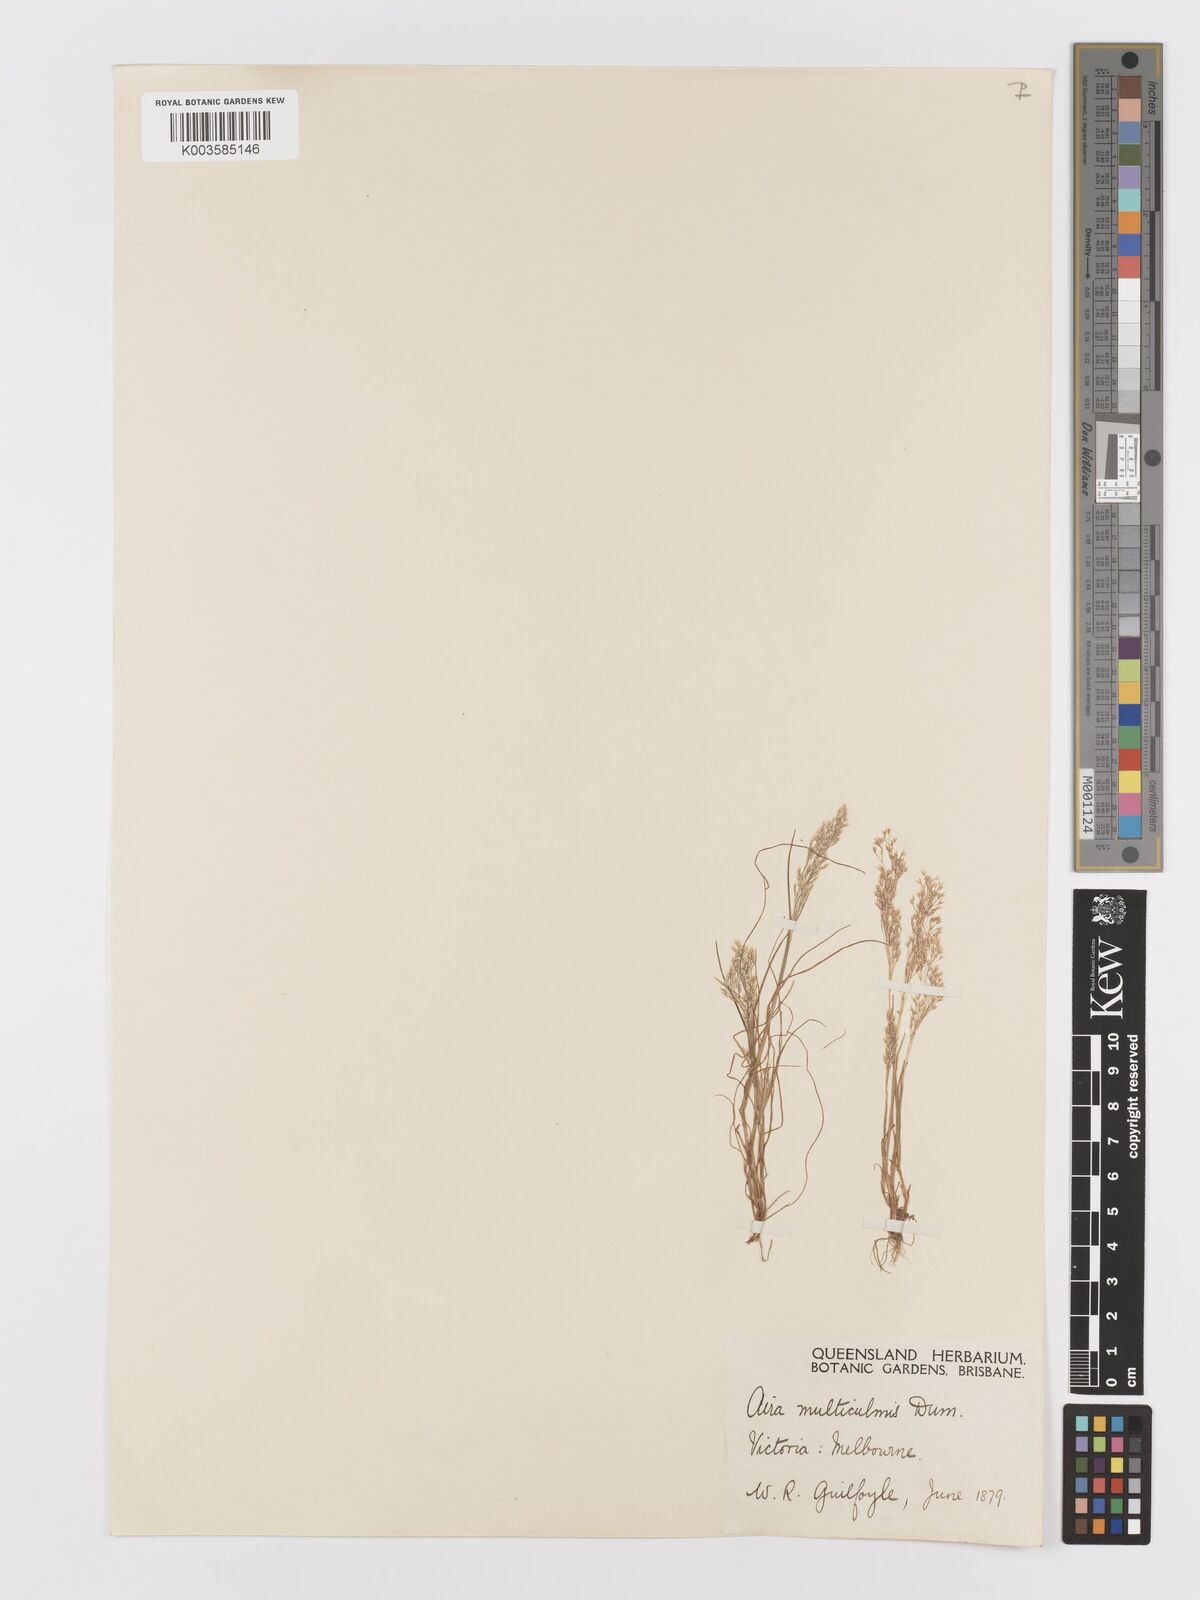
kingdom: Plantae
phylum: Tracheophyta
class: Liliopsida
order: Poales
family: Poaceae
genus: Aira
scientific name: Aira cupaniana
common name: Silver hairgrass
